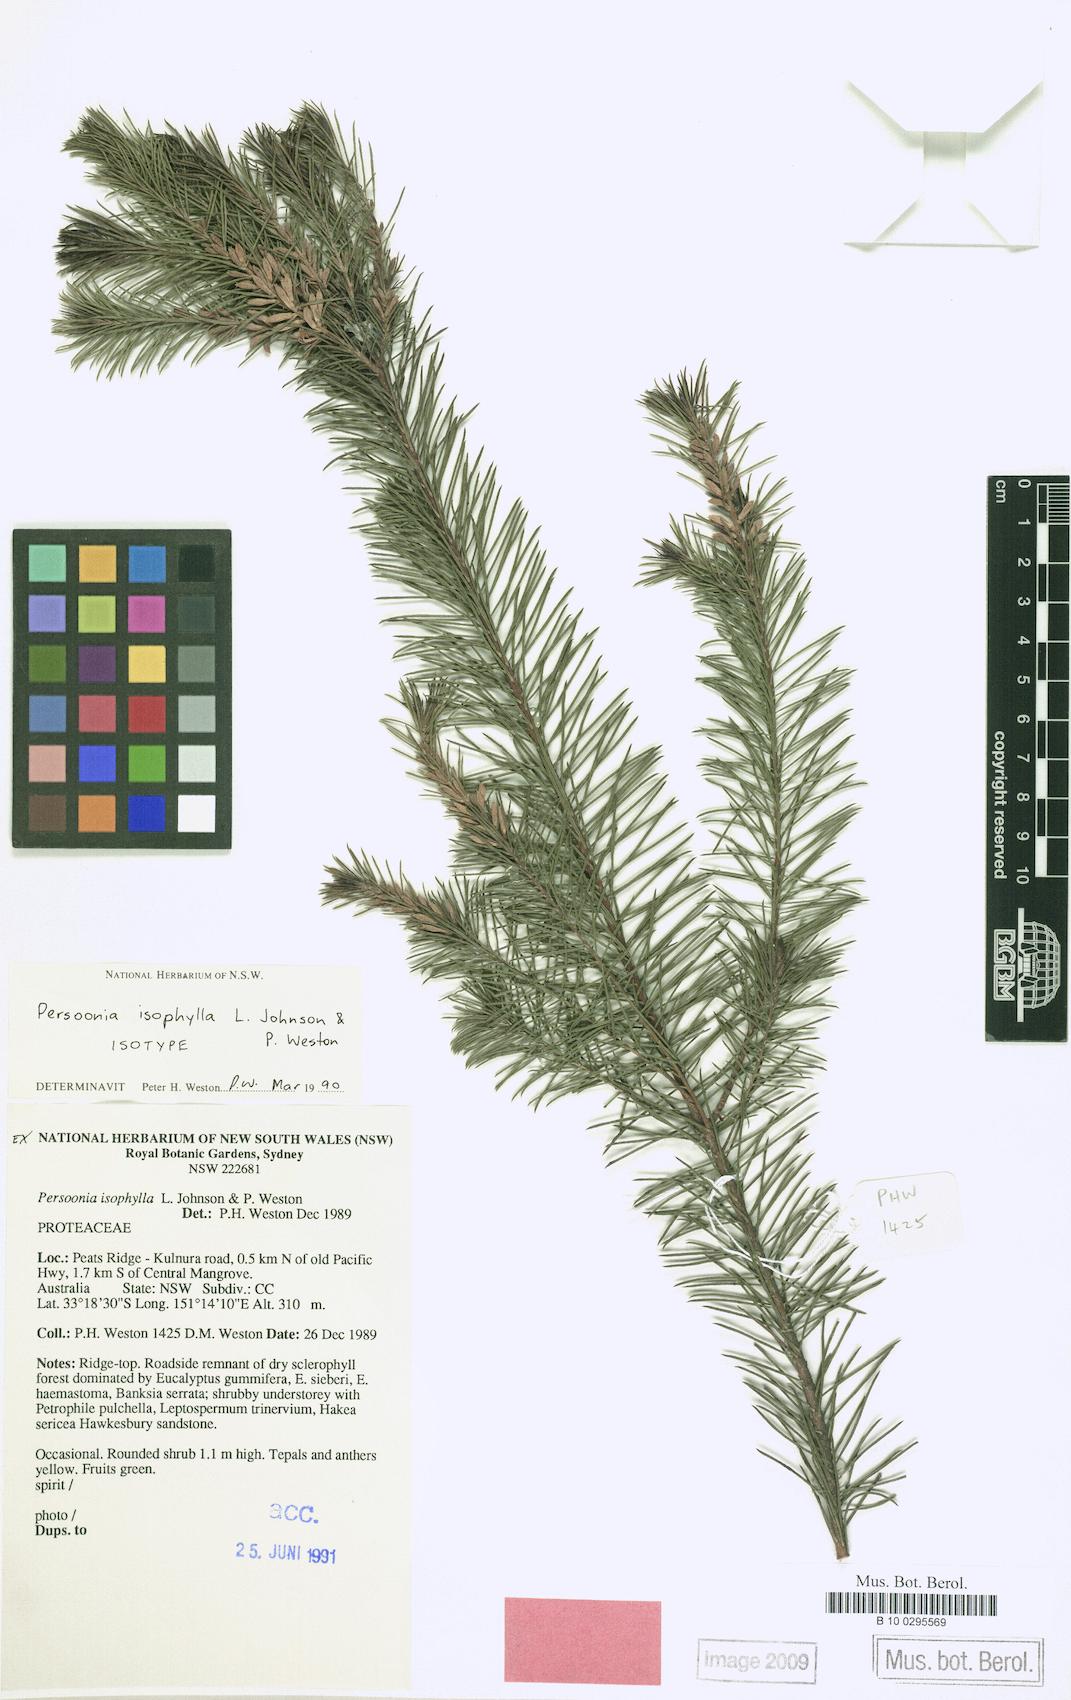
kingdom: Plantae
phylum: Tracheophyta
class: Magnoliopsida
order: Proteales
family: Proteaceae
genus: Persoonia
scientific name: Persoonia isophylla
